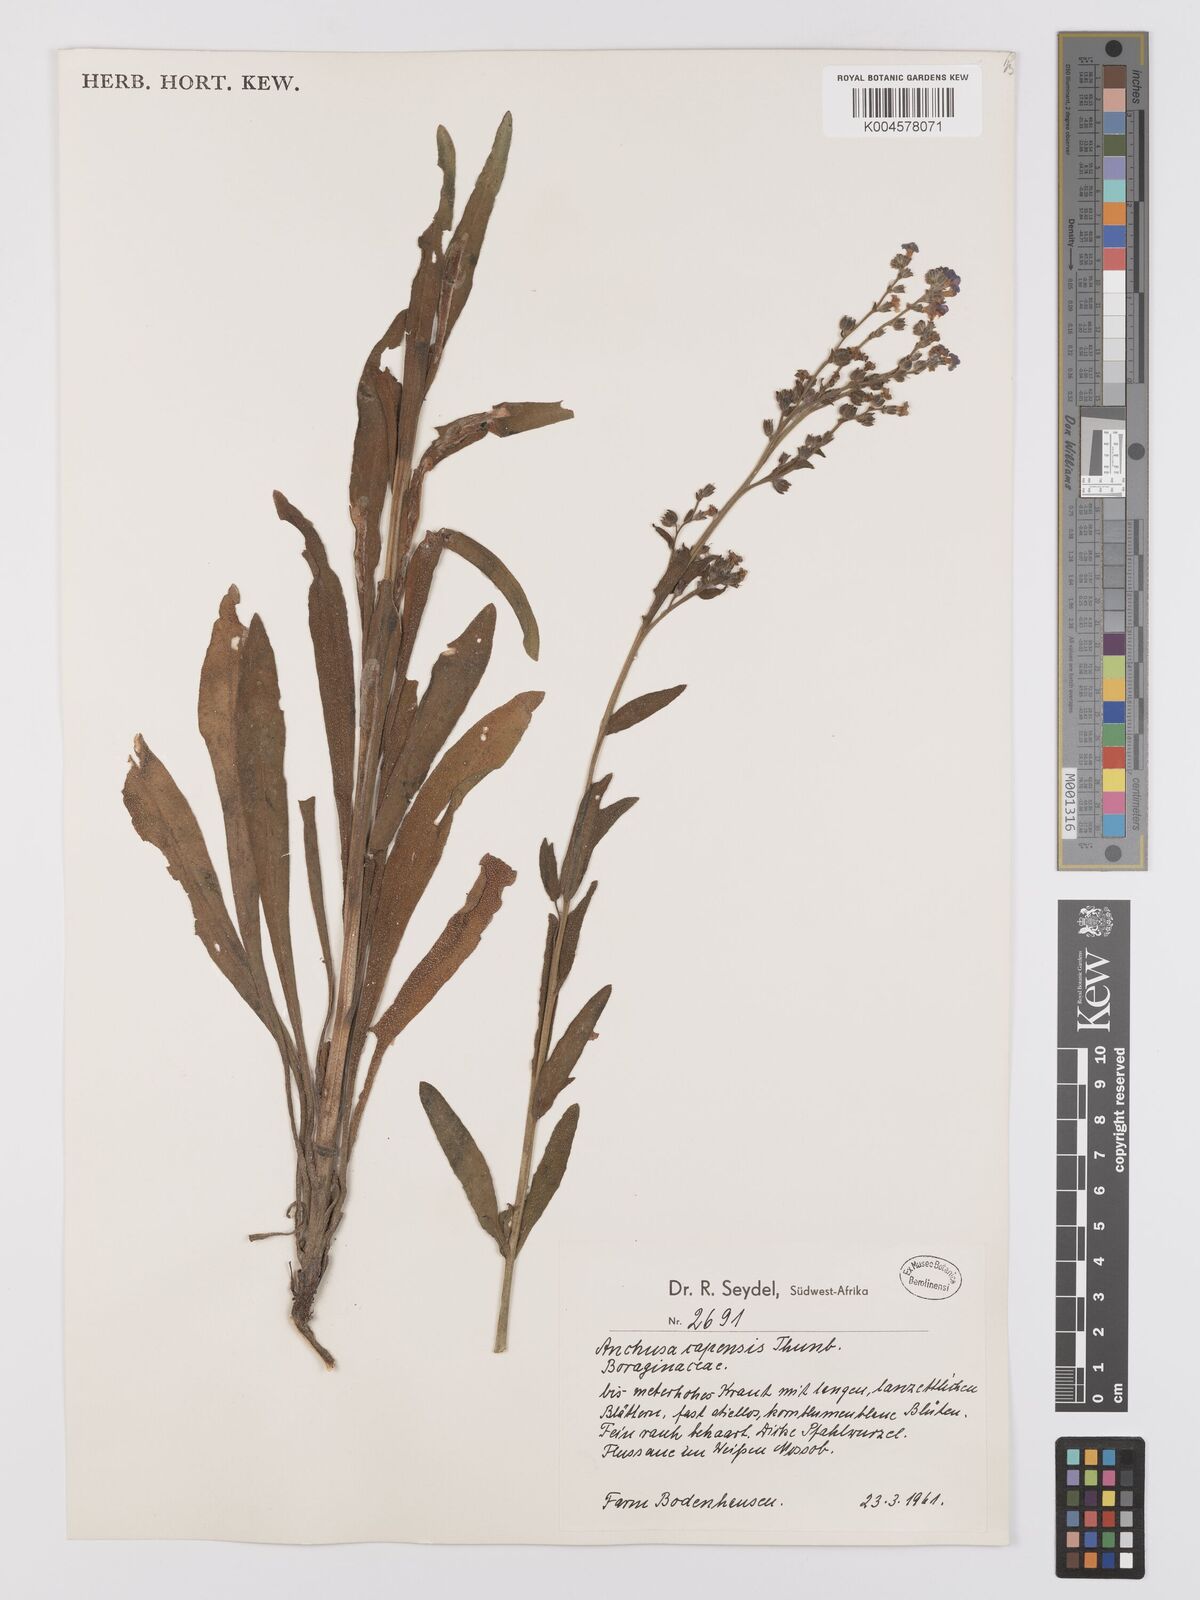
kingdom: Plantae
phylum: Tracheophyta
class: Magnoliopsida
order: Boraginales
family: Boraginaceae
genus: Anchusa
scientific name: Anchusa capensis
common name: Cape bugloss
